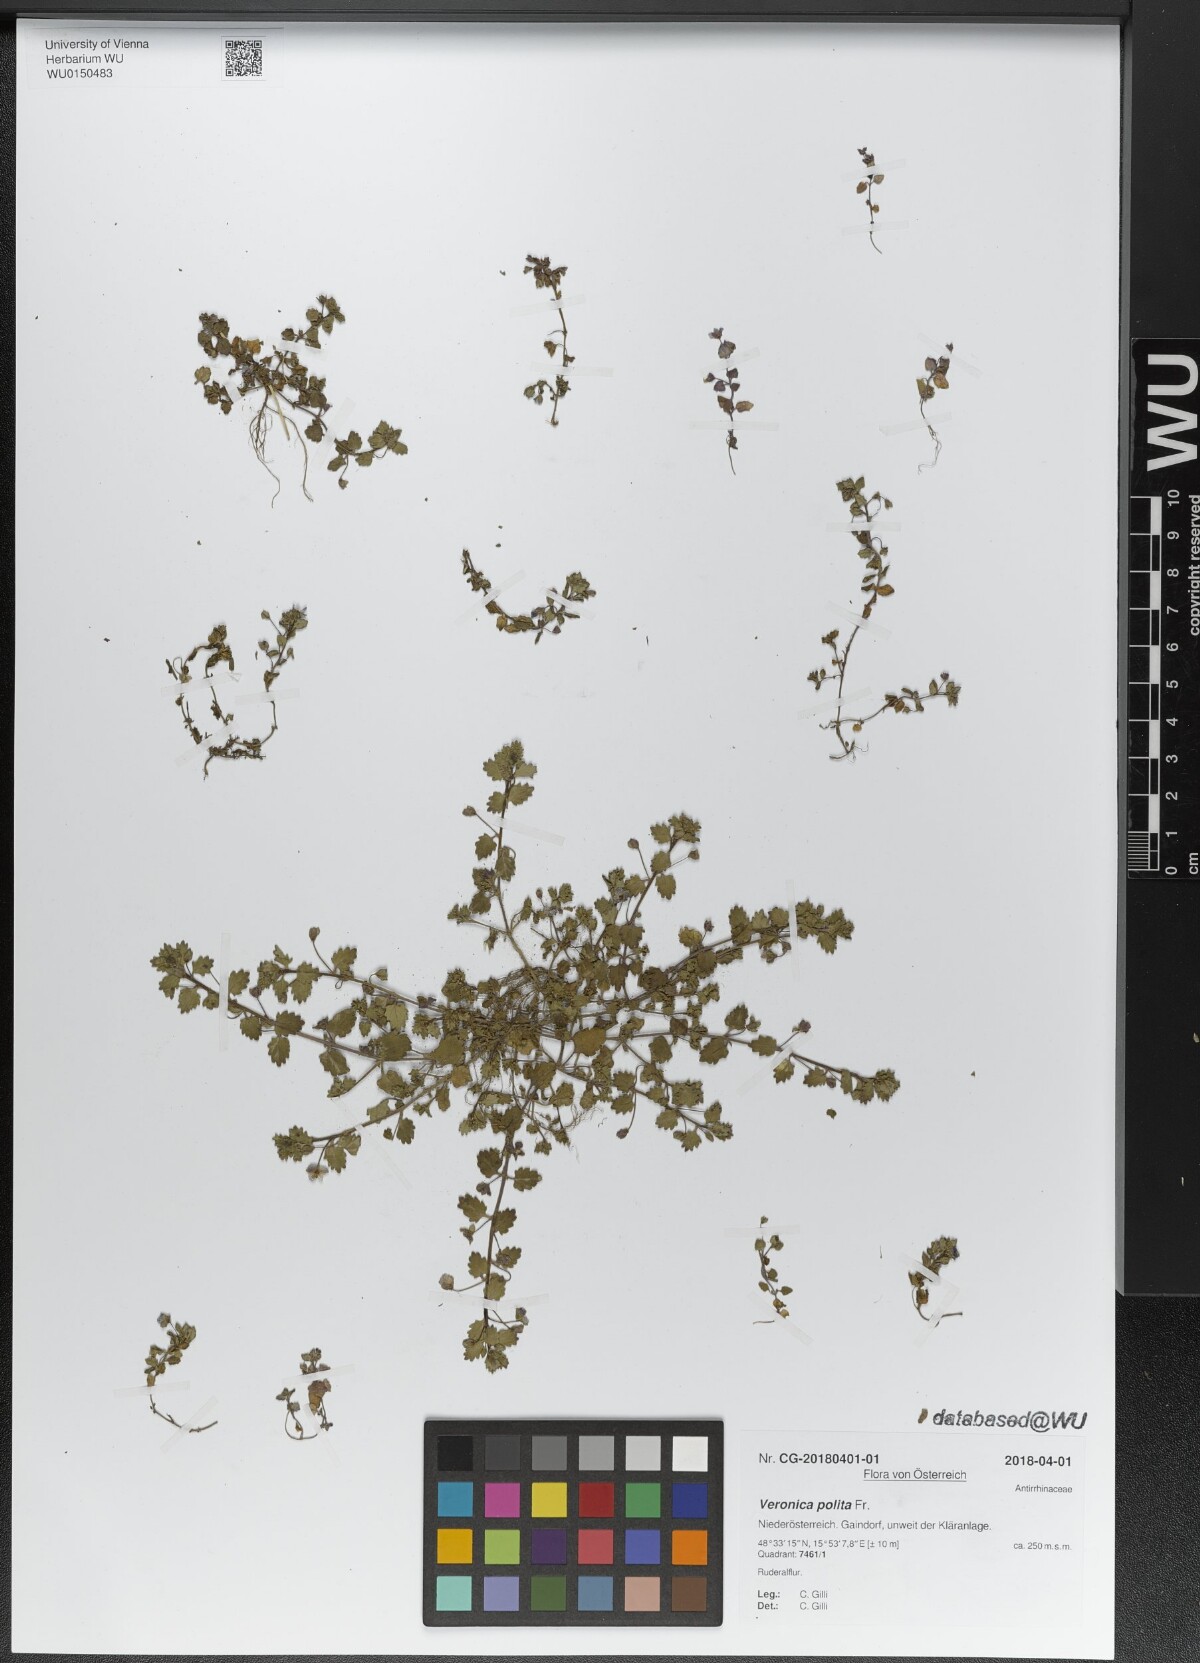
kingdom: Plantae
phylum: Tracheophyta
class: Magnoliopsida
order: Lamiales
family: Plantaginaceae
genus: Veronica
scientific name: Veronica polita
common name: Grey field-speedwell
